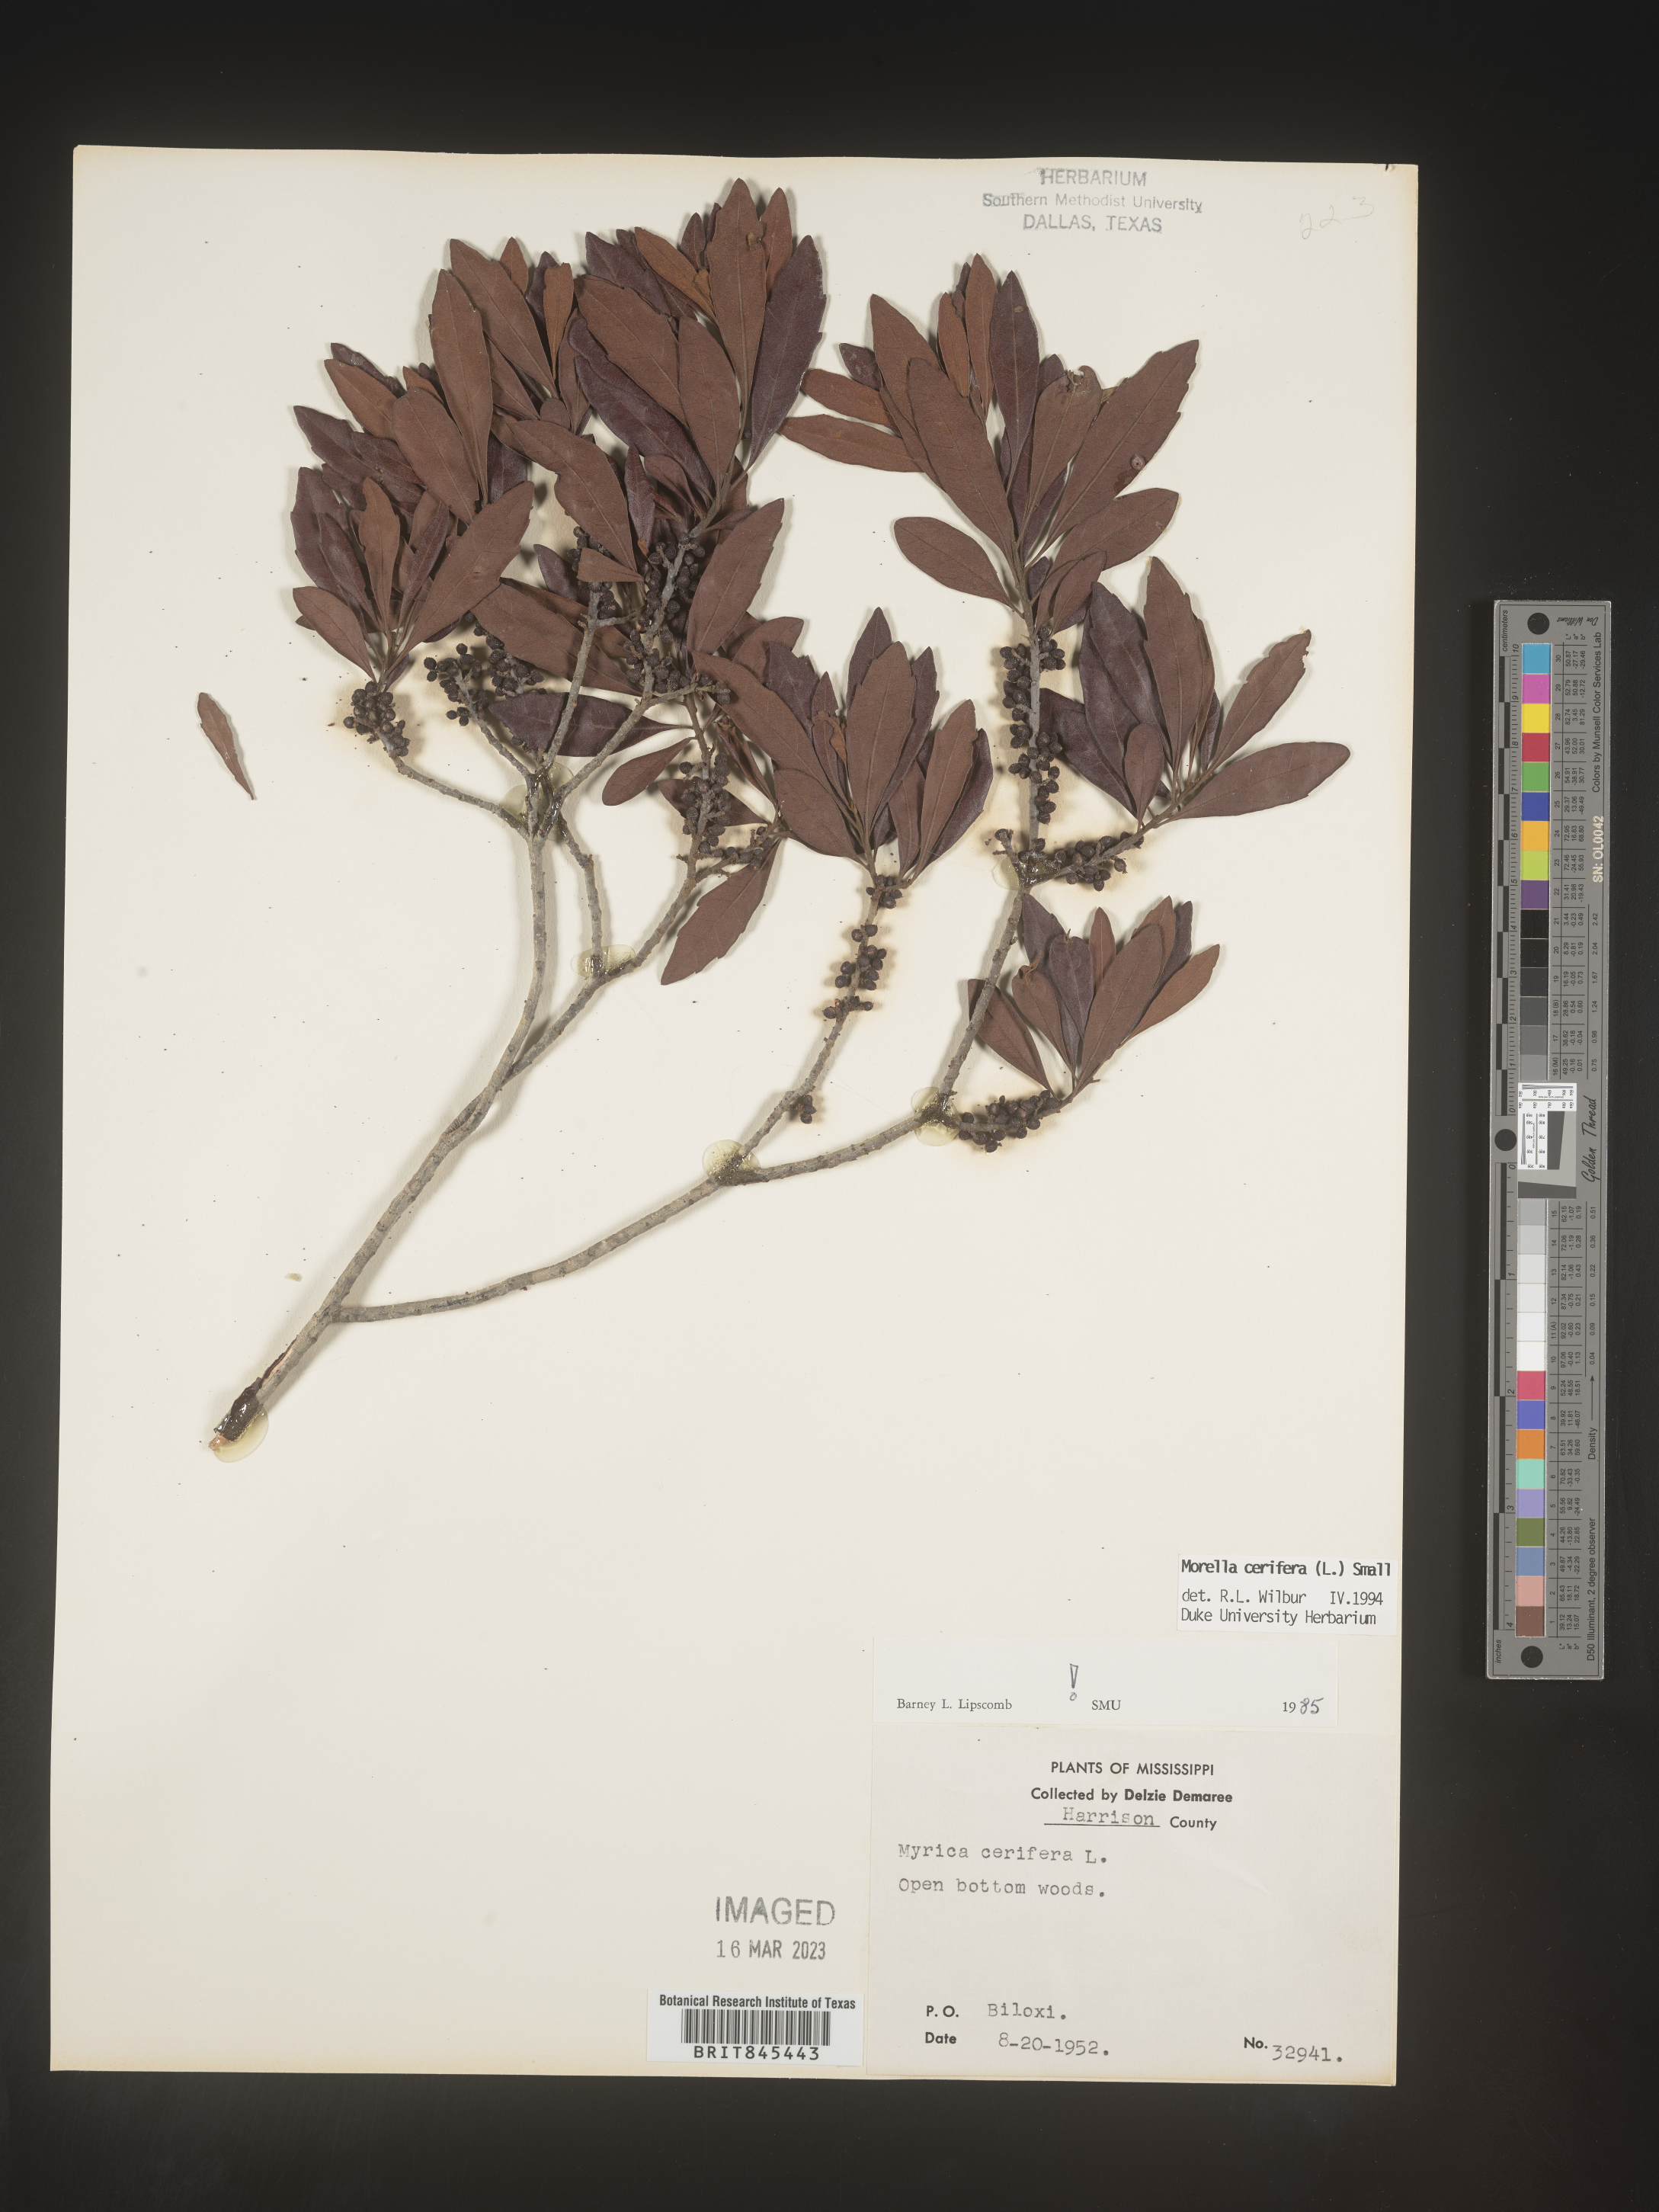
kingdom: Plantae
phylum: Tracheophyta
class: Magnoliopsida
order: Fagales
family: Myricaceae
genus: Morella
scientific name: Morella cerifera
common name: Wax myrtle
